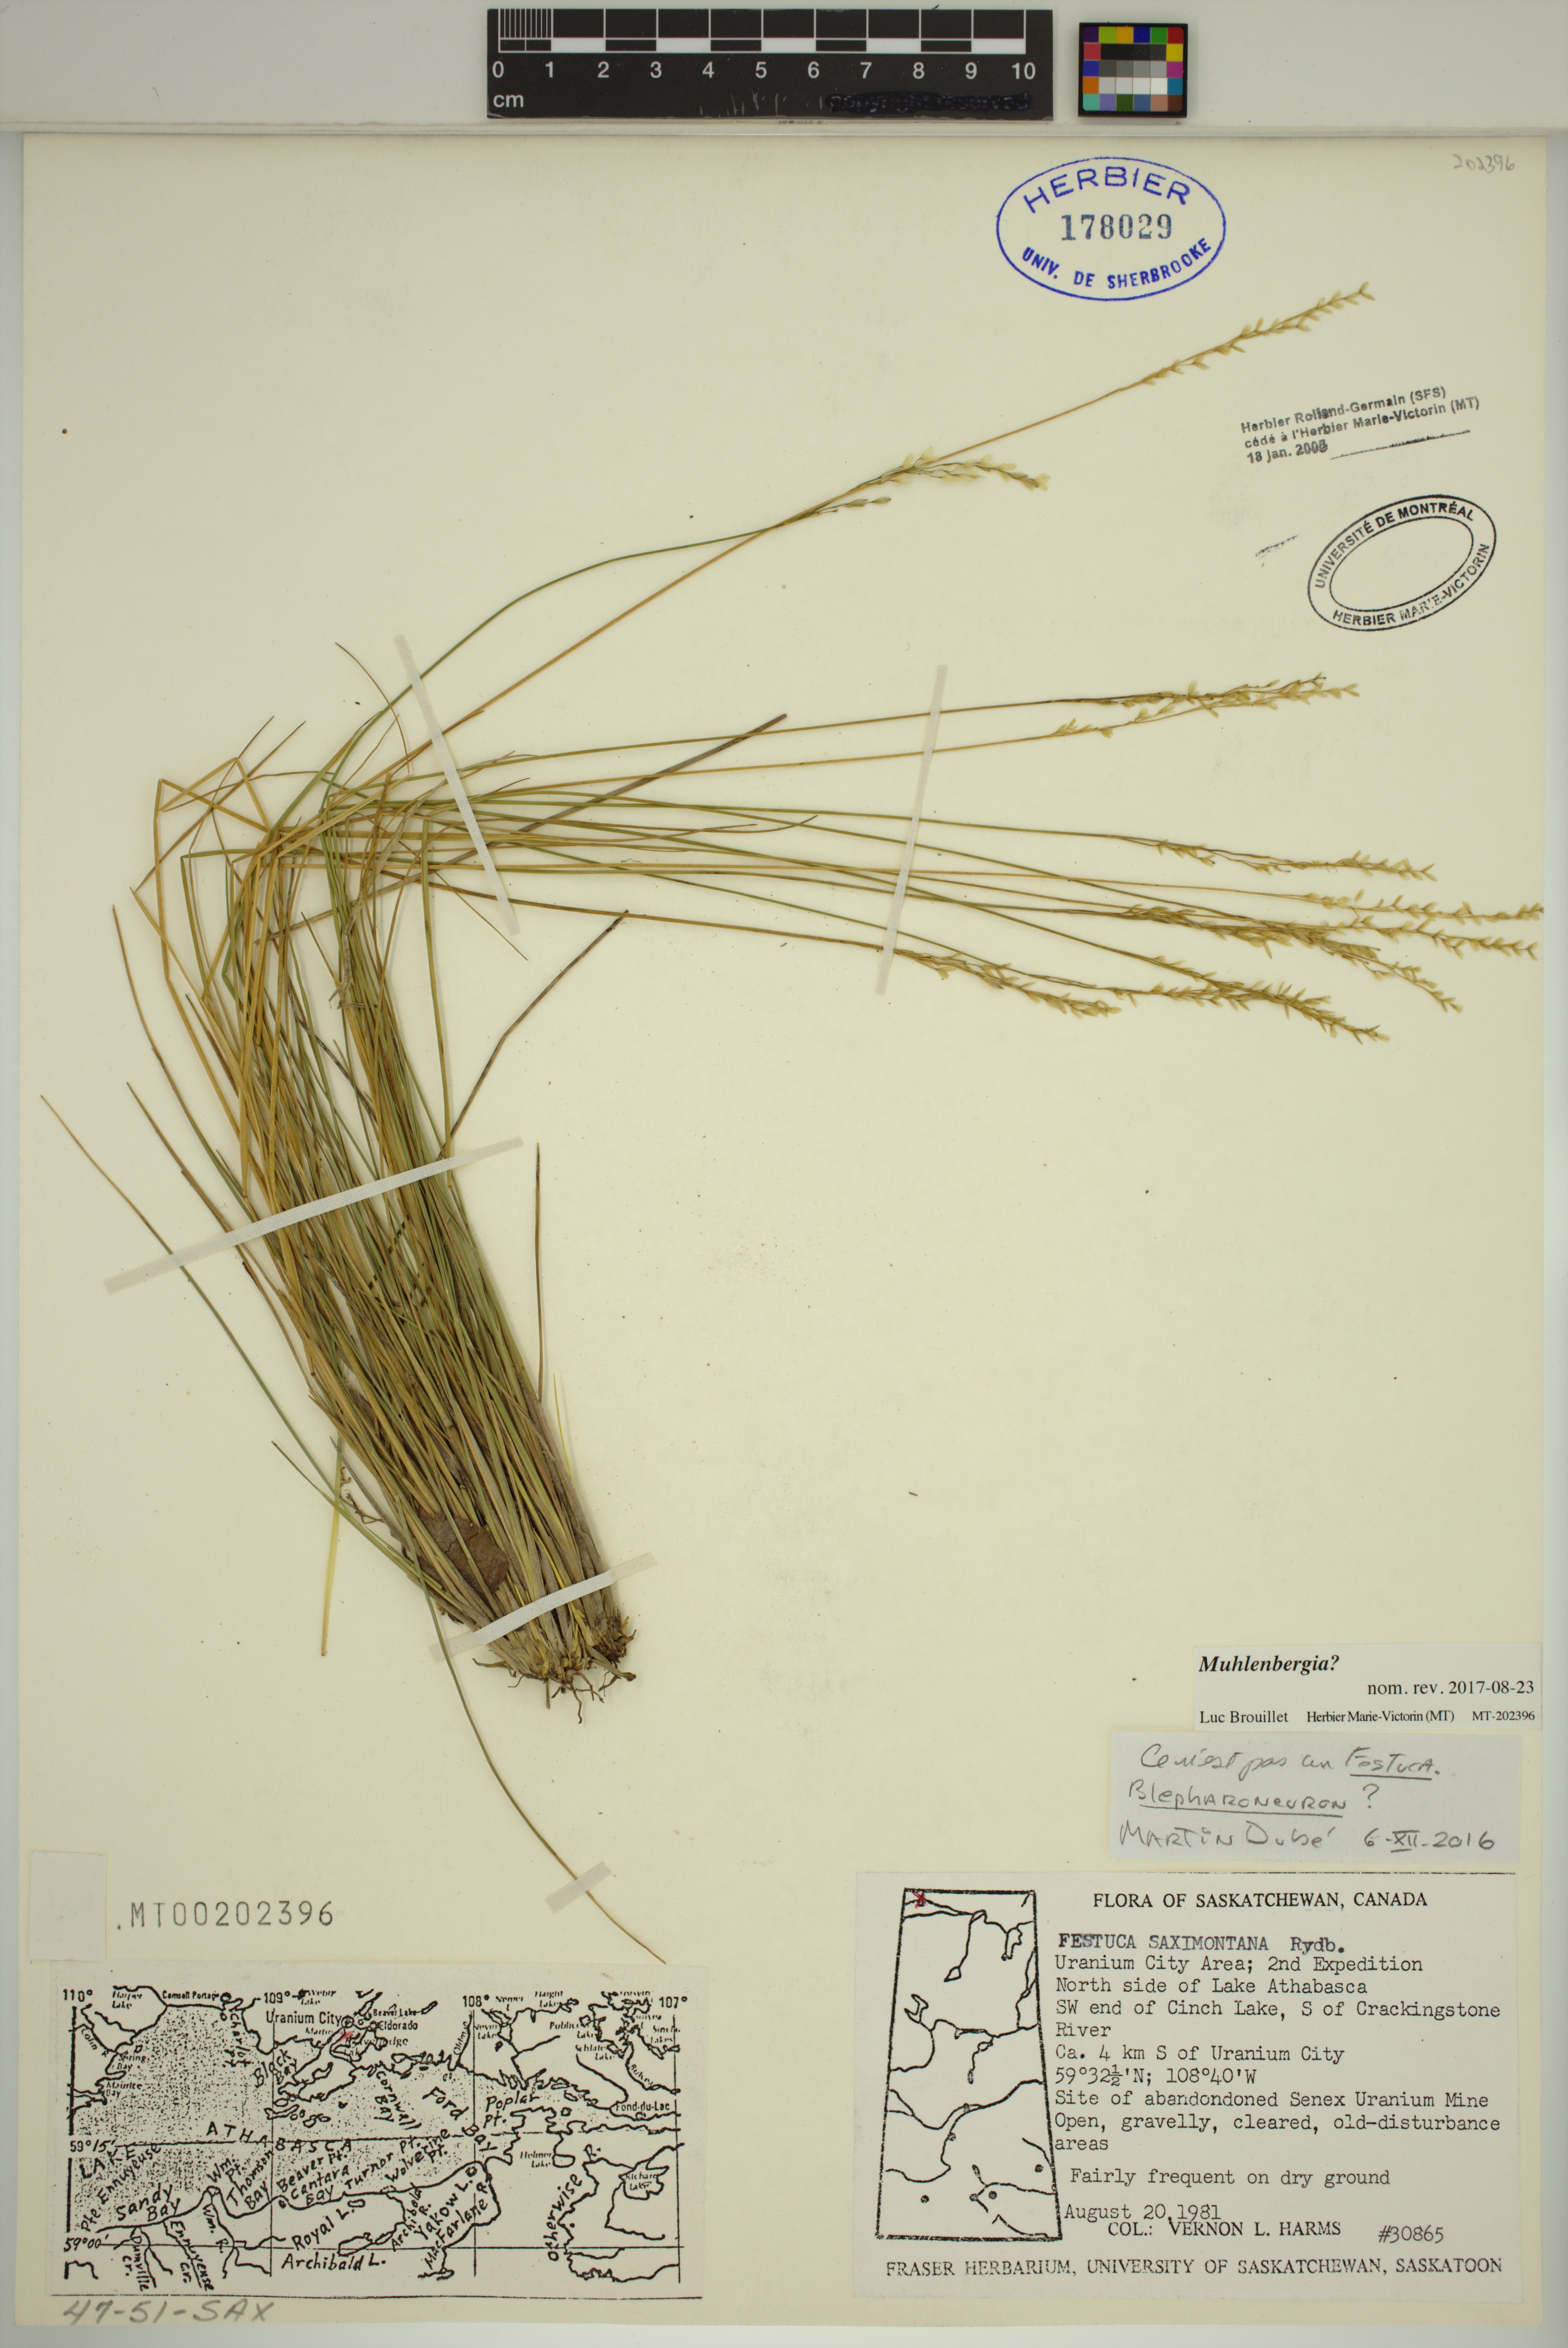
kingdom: Plantae
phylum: Tracheophyta
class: Liliopsida
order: Poales
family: Poaceae
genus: Muhlenbergia
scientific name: Muhlenbergia
